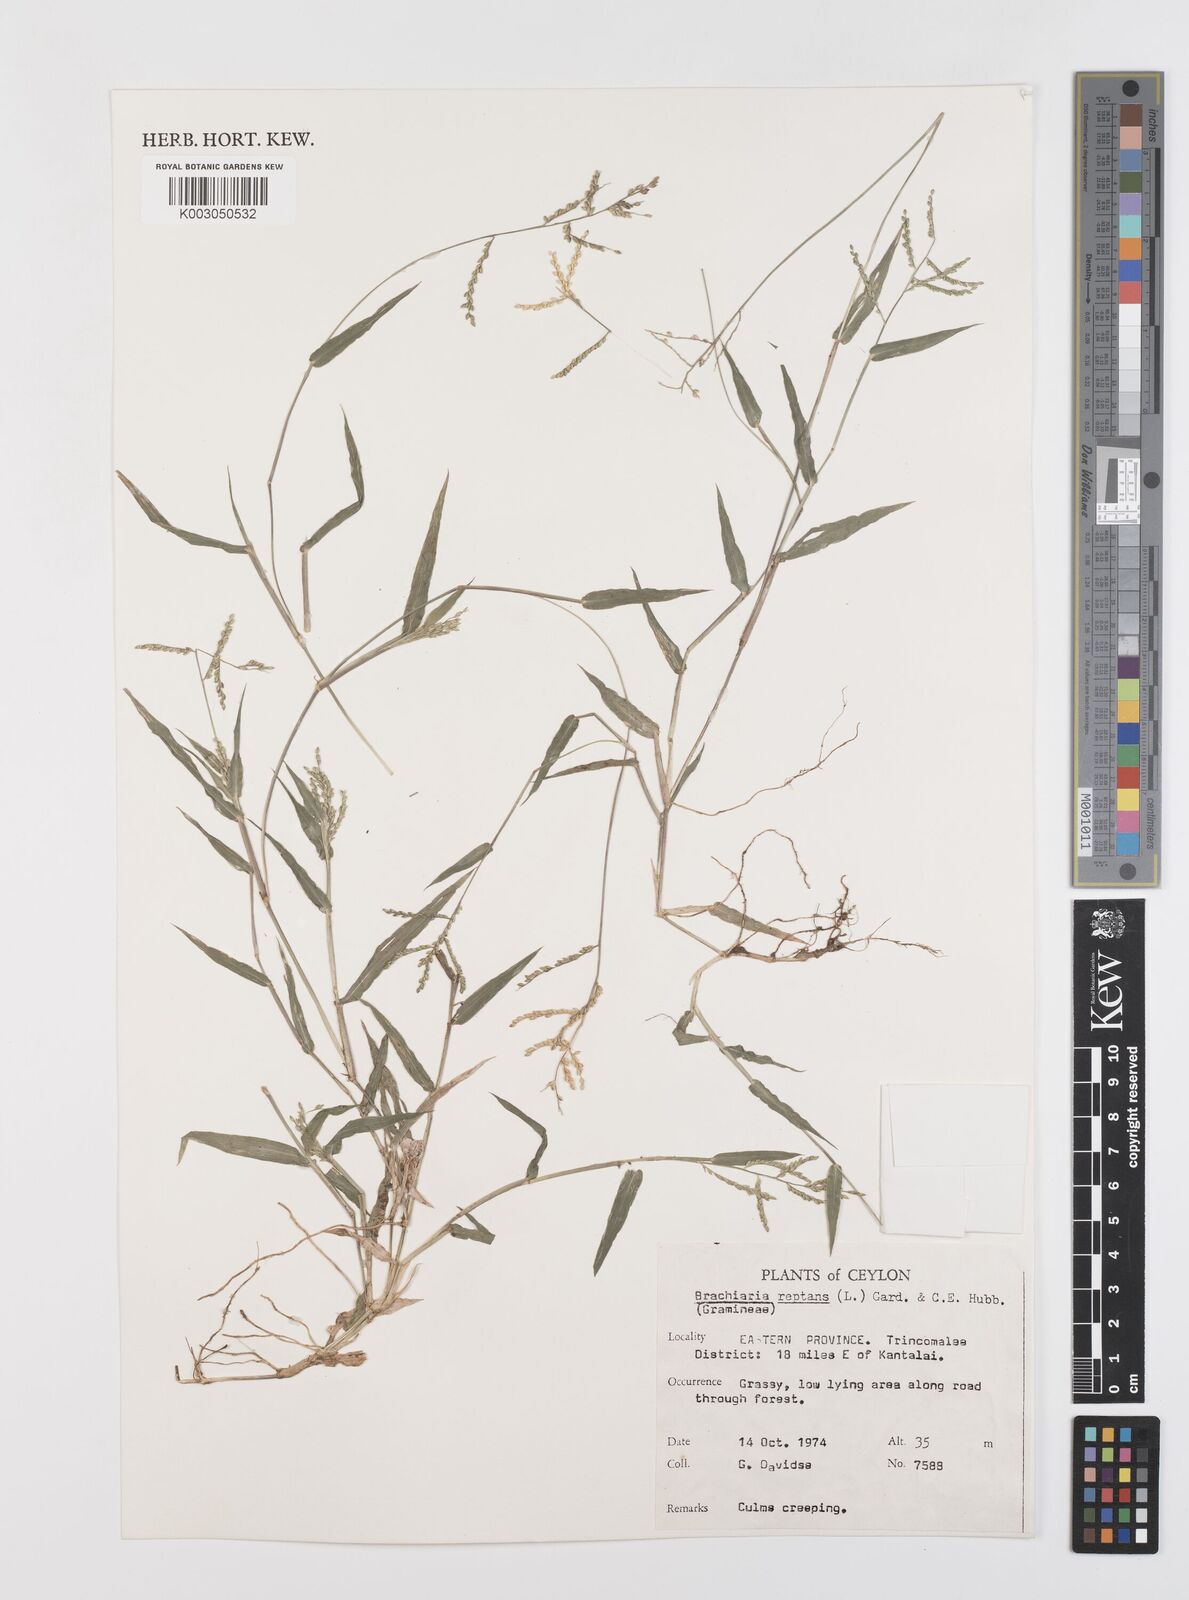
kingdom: Plantae
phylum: Tracheophyta
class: Liliopsida
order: Poales
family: Poaceae
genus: Urochloa
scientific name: Urochloa reptans
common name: Sprawling signalgrass
